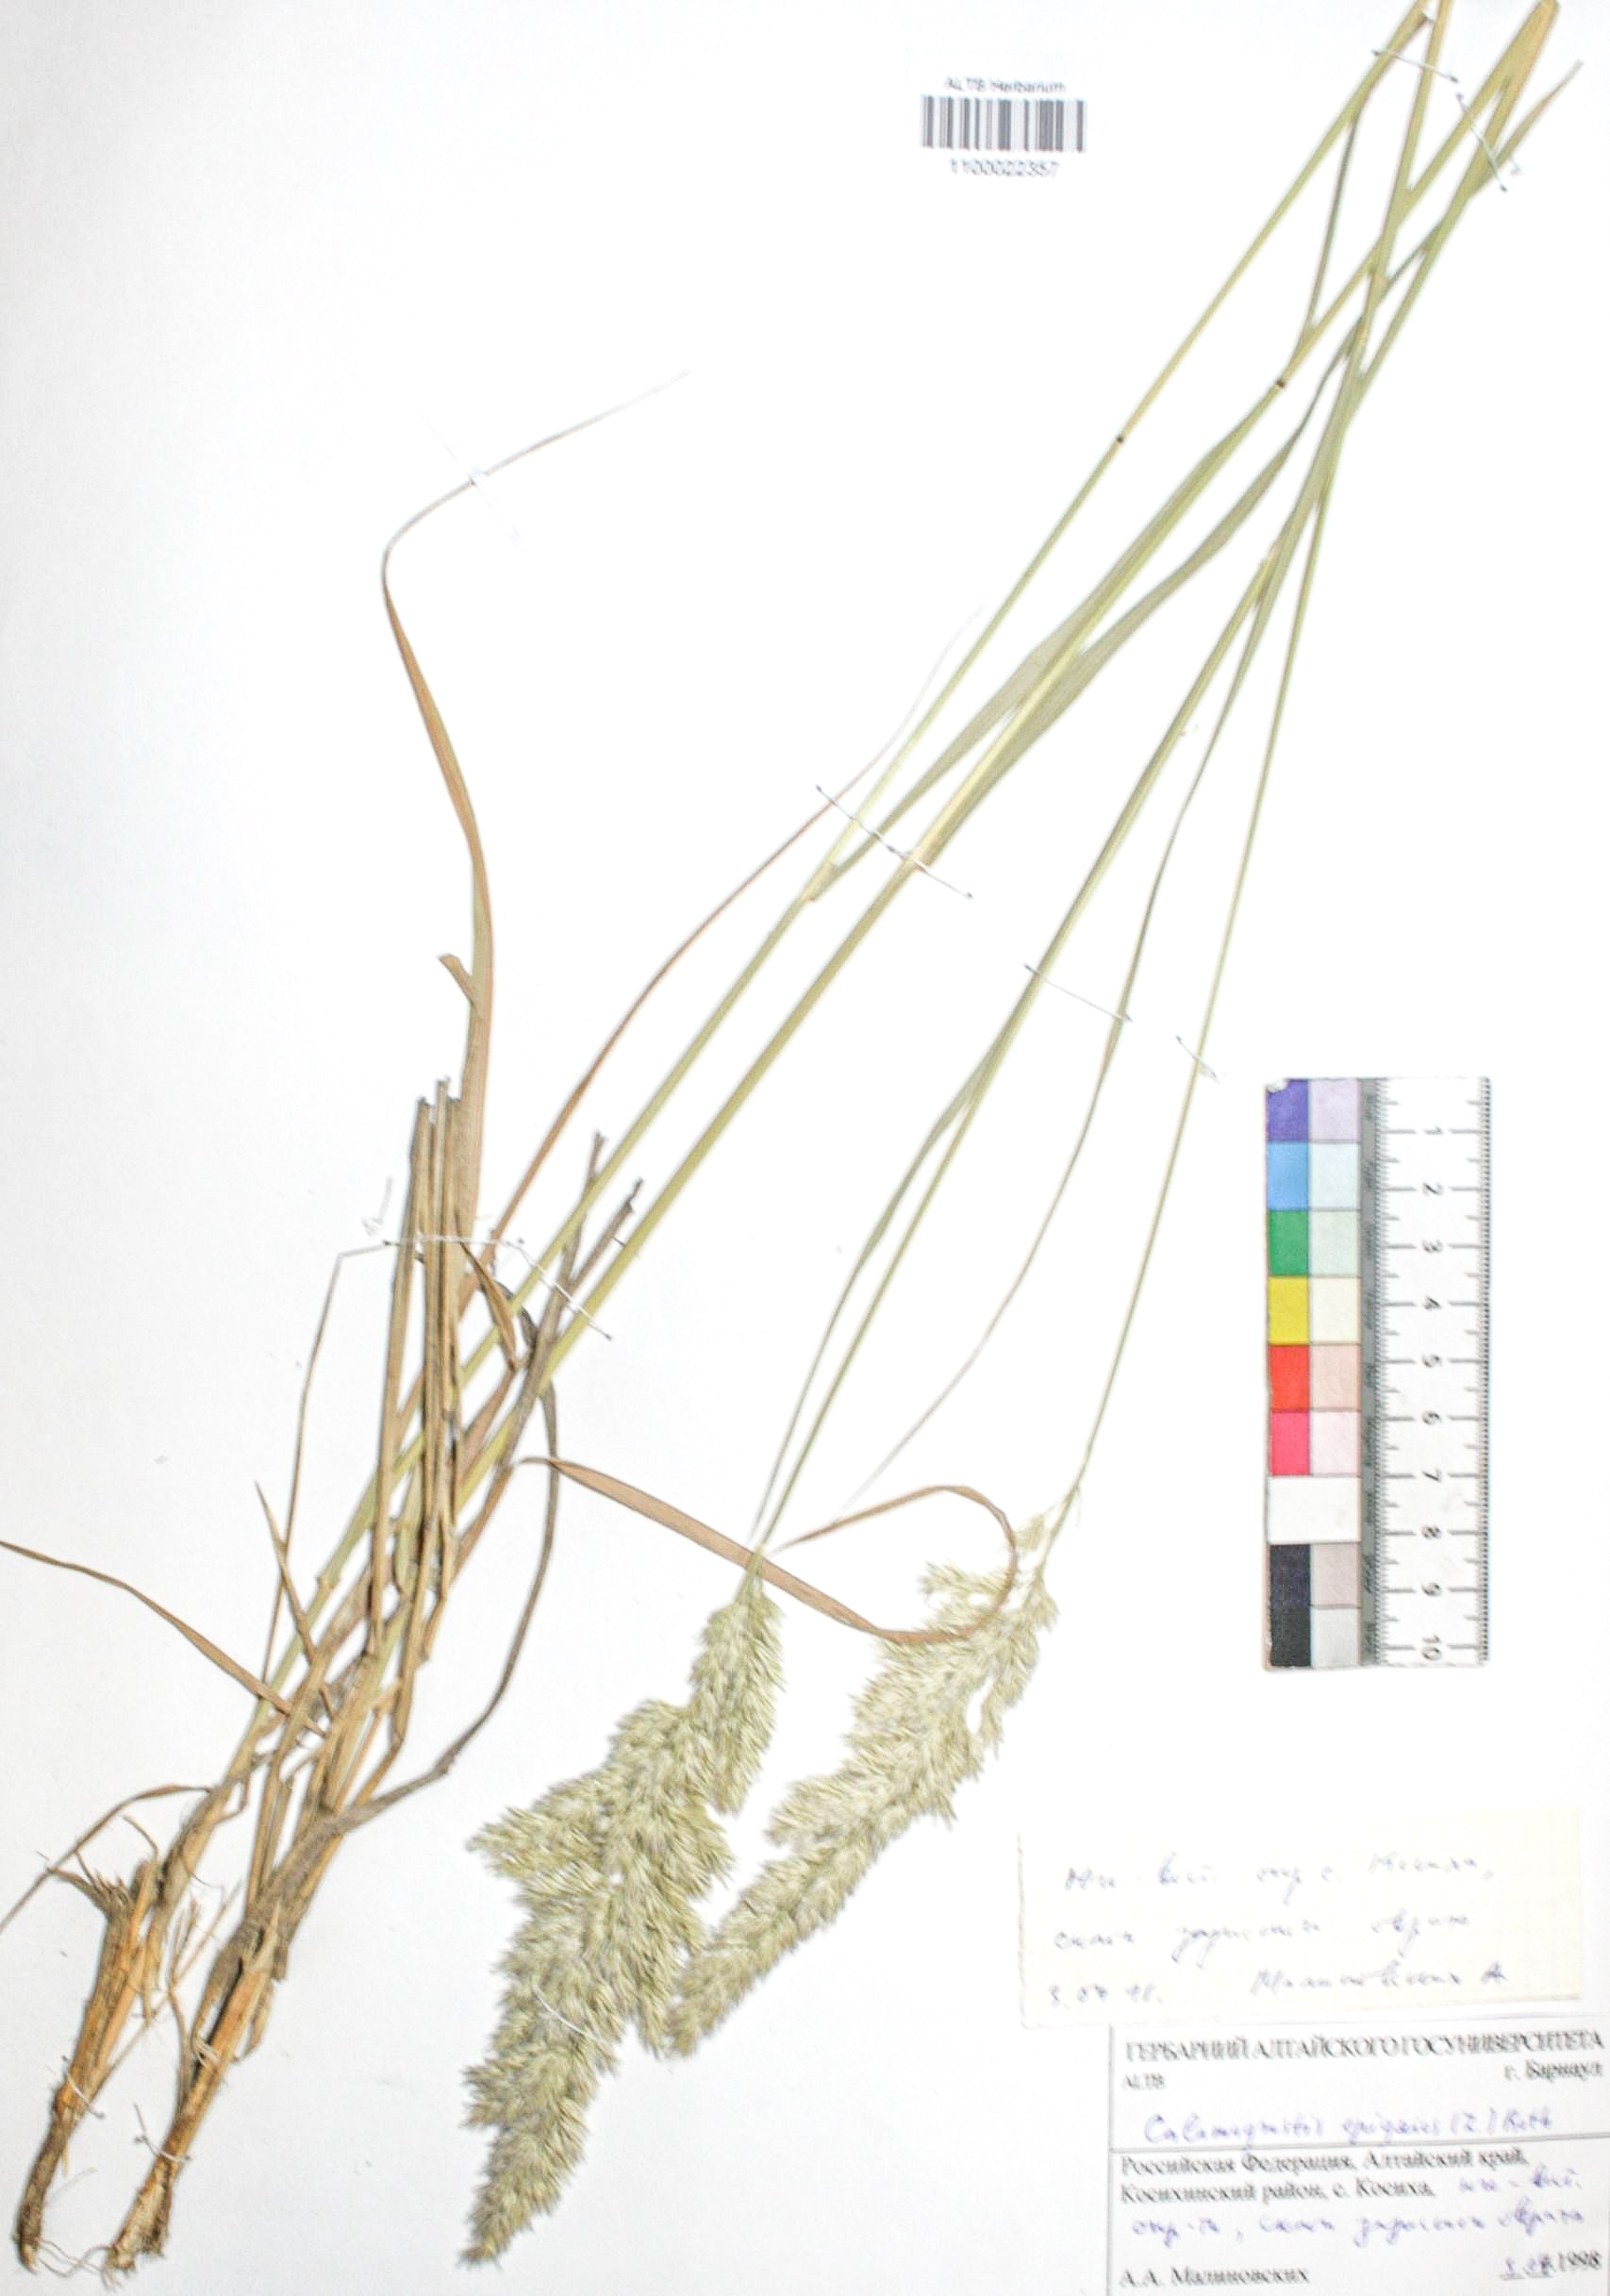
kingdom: Plantae
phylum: Tracheophyta
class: Liliopsida
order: Poales
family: Poaceae
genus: Calamagrostis
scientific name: Calamagrostis epigejos
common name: Wood small-reed
